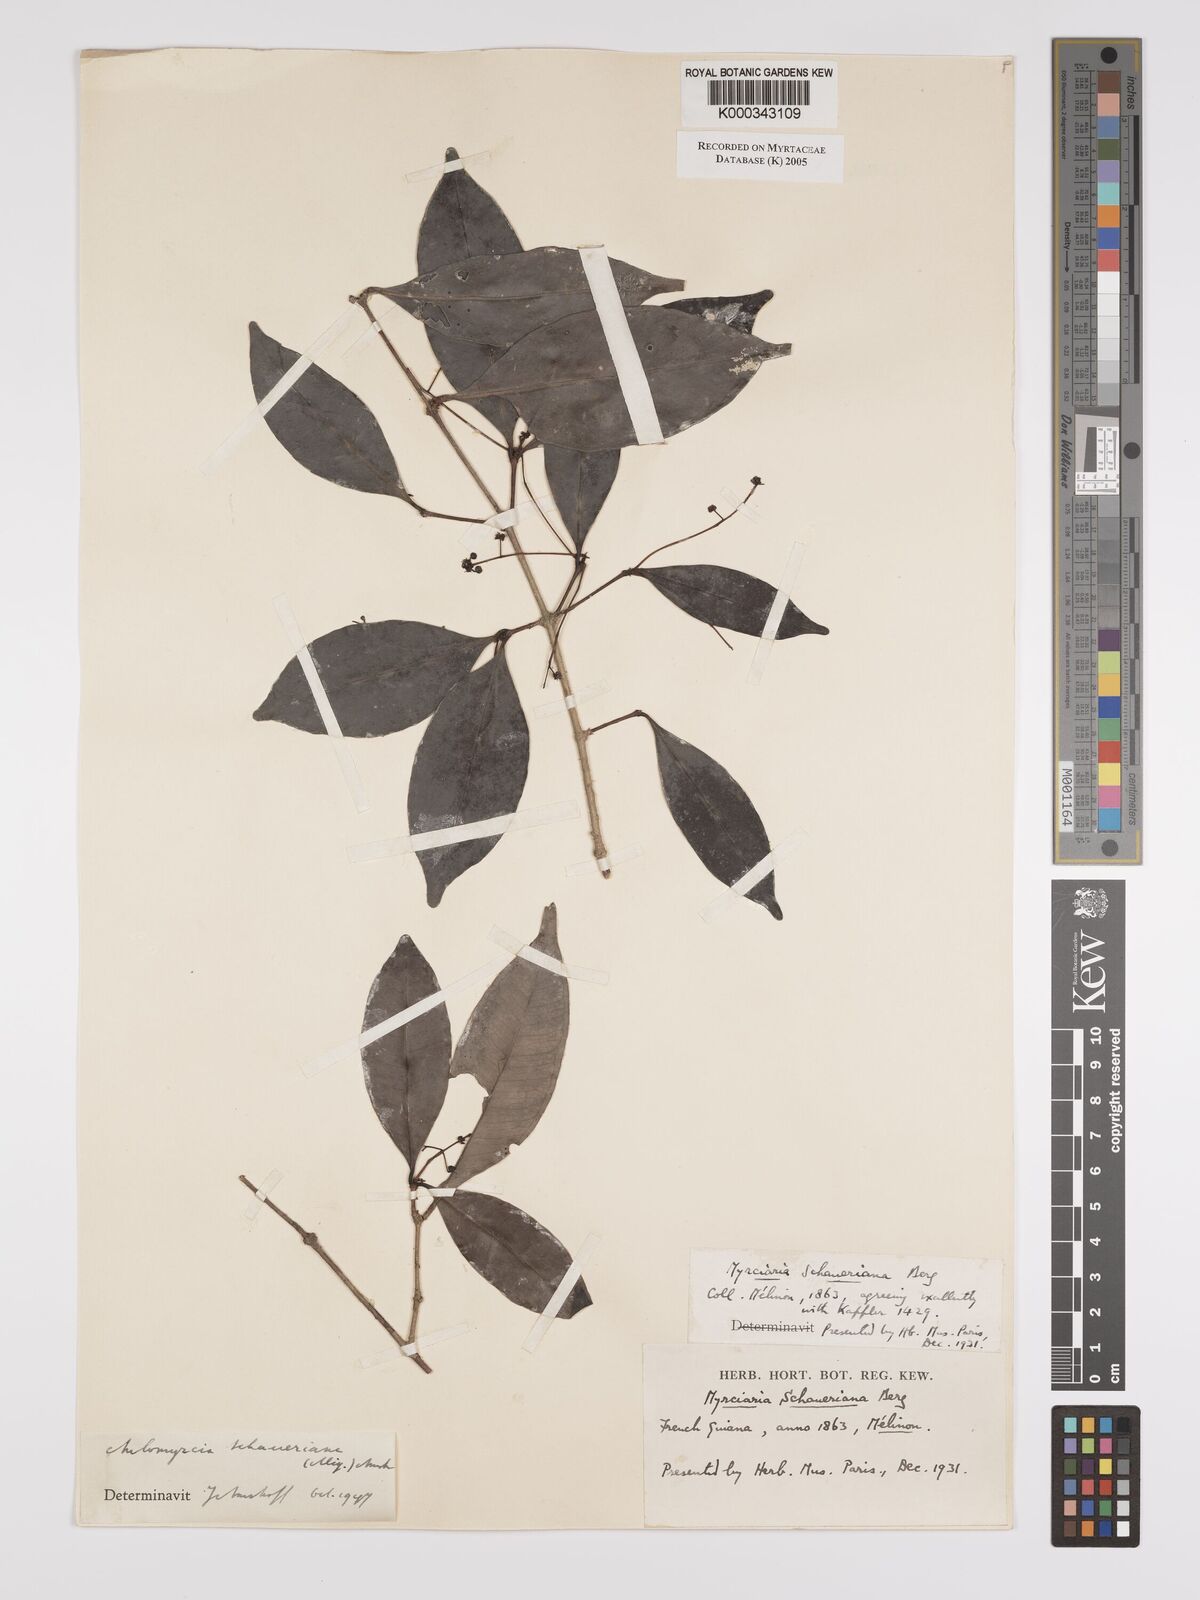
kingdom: Plantae
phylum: Tracheophyta
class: Magnoliopsida
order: Myrtales
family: Myrtaceae
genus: Myrcia
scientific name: Myrcia graciliflora
